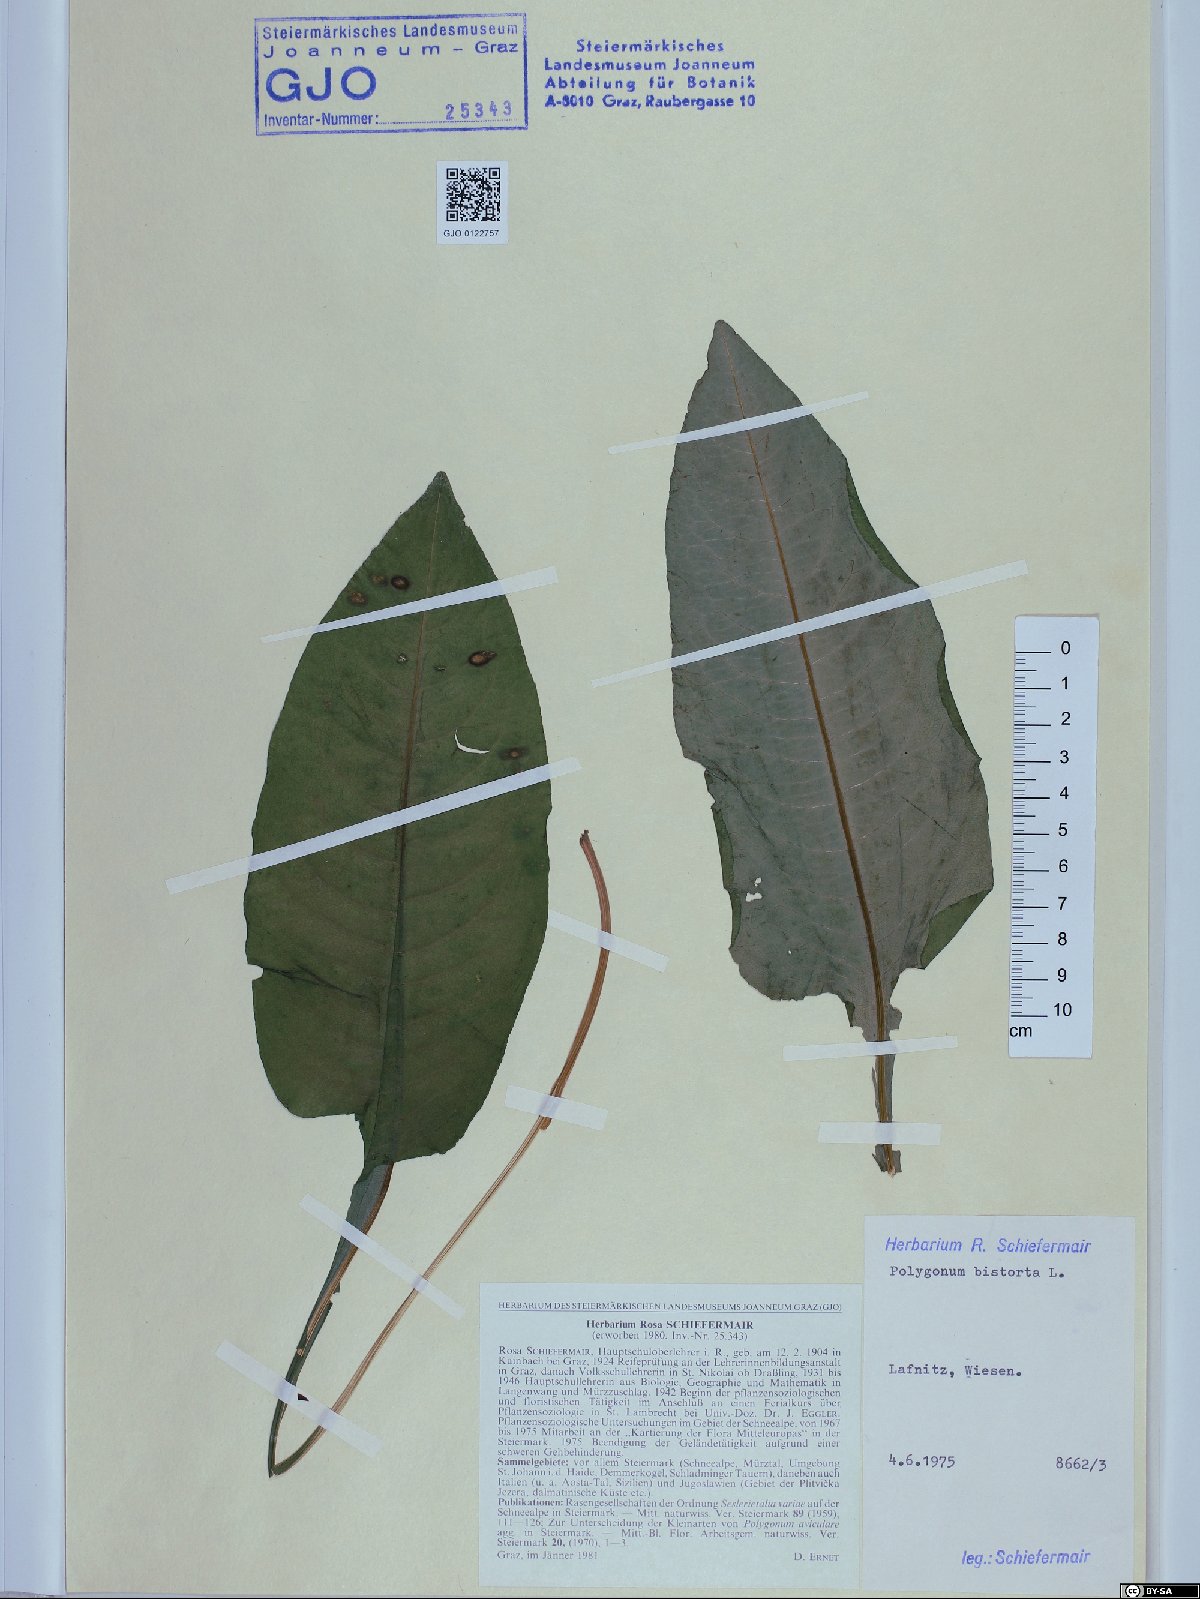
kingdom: Plantae
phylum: Tracheophyta
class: Magnoliopsida
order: Caryophyllales
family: Polygonaceae
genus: Bistorta
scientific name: Bistorta officinalis
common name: Common bistort
